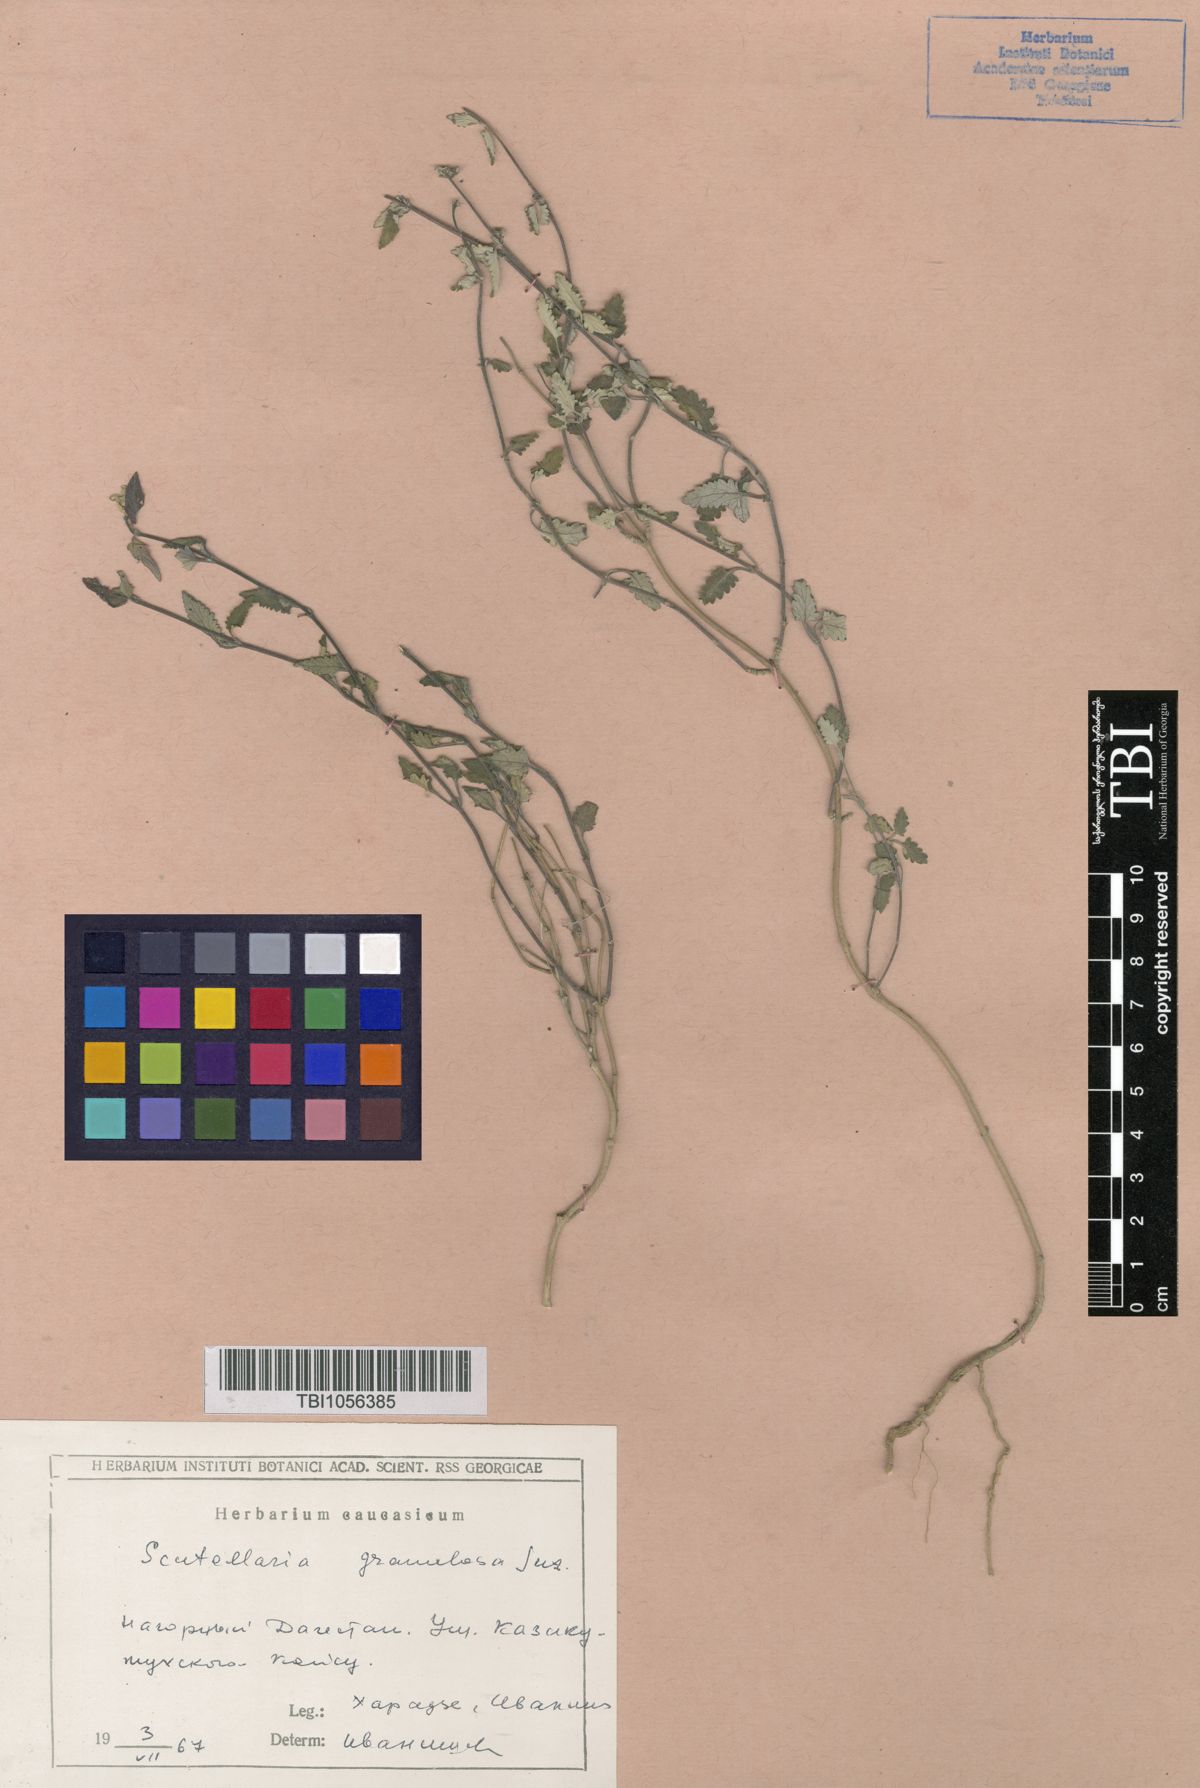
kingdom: Plantae
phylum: Tracheophyta
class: Magnoliopsida
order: Lamiales
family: Lamiaceae
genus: Scutellaria
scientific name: Scutellaria granulosa
